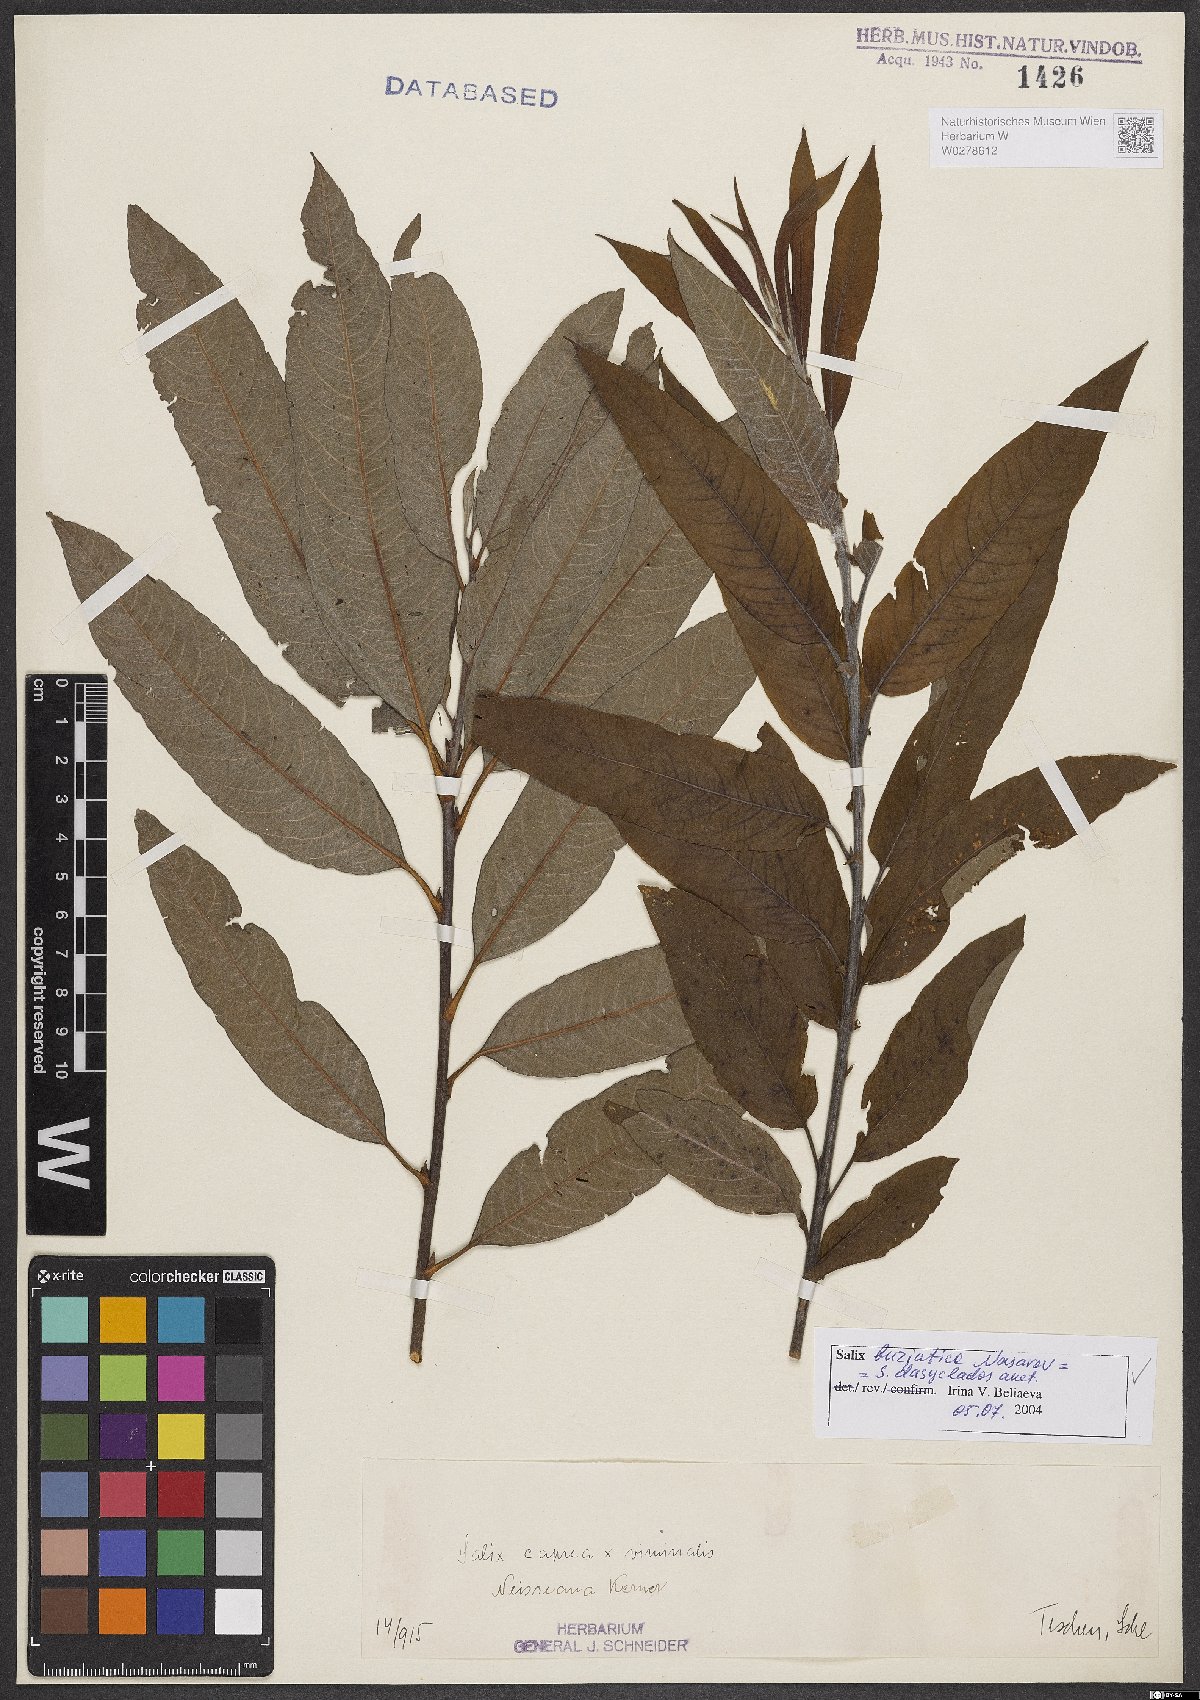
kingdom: Plantae
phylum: Tracheophyta
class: Magnoliopsida
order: Malpighiales
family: Salicaceae
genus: Salix
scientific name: Salix gmelinii
